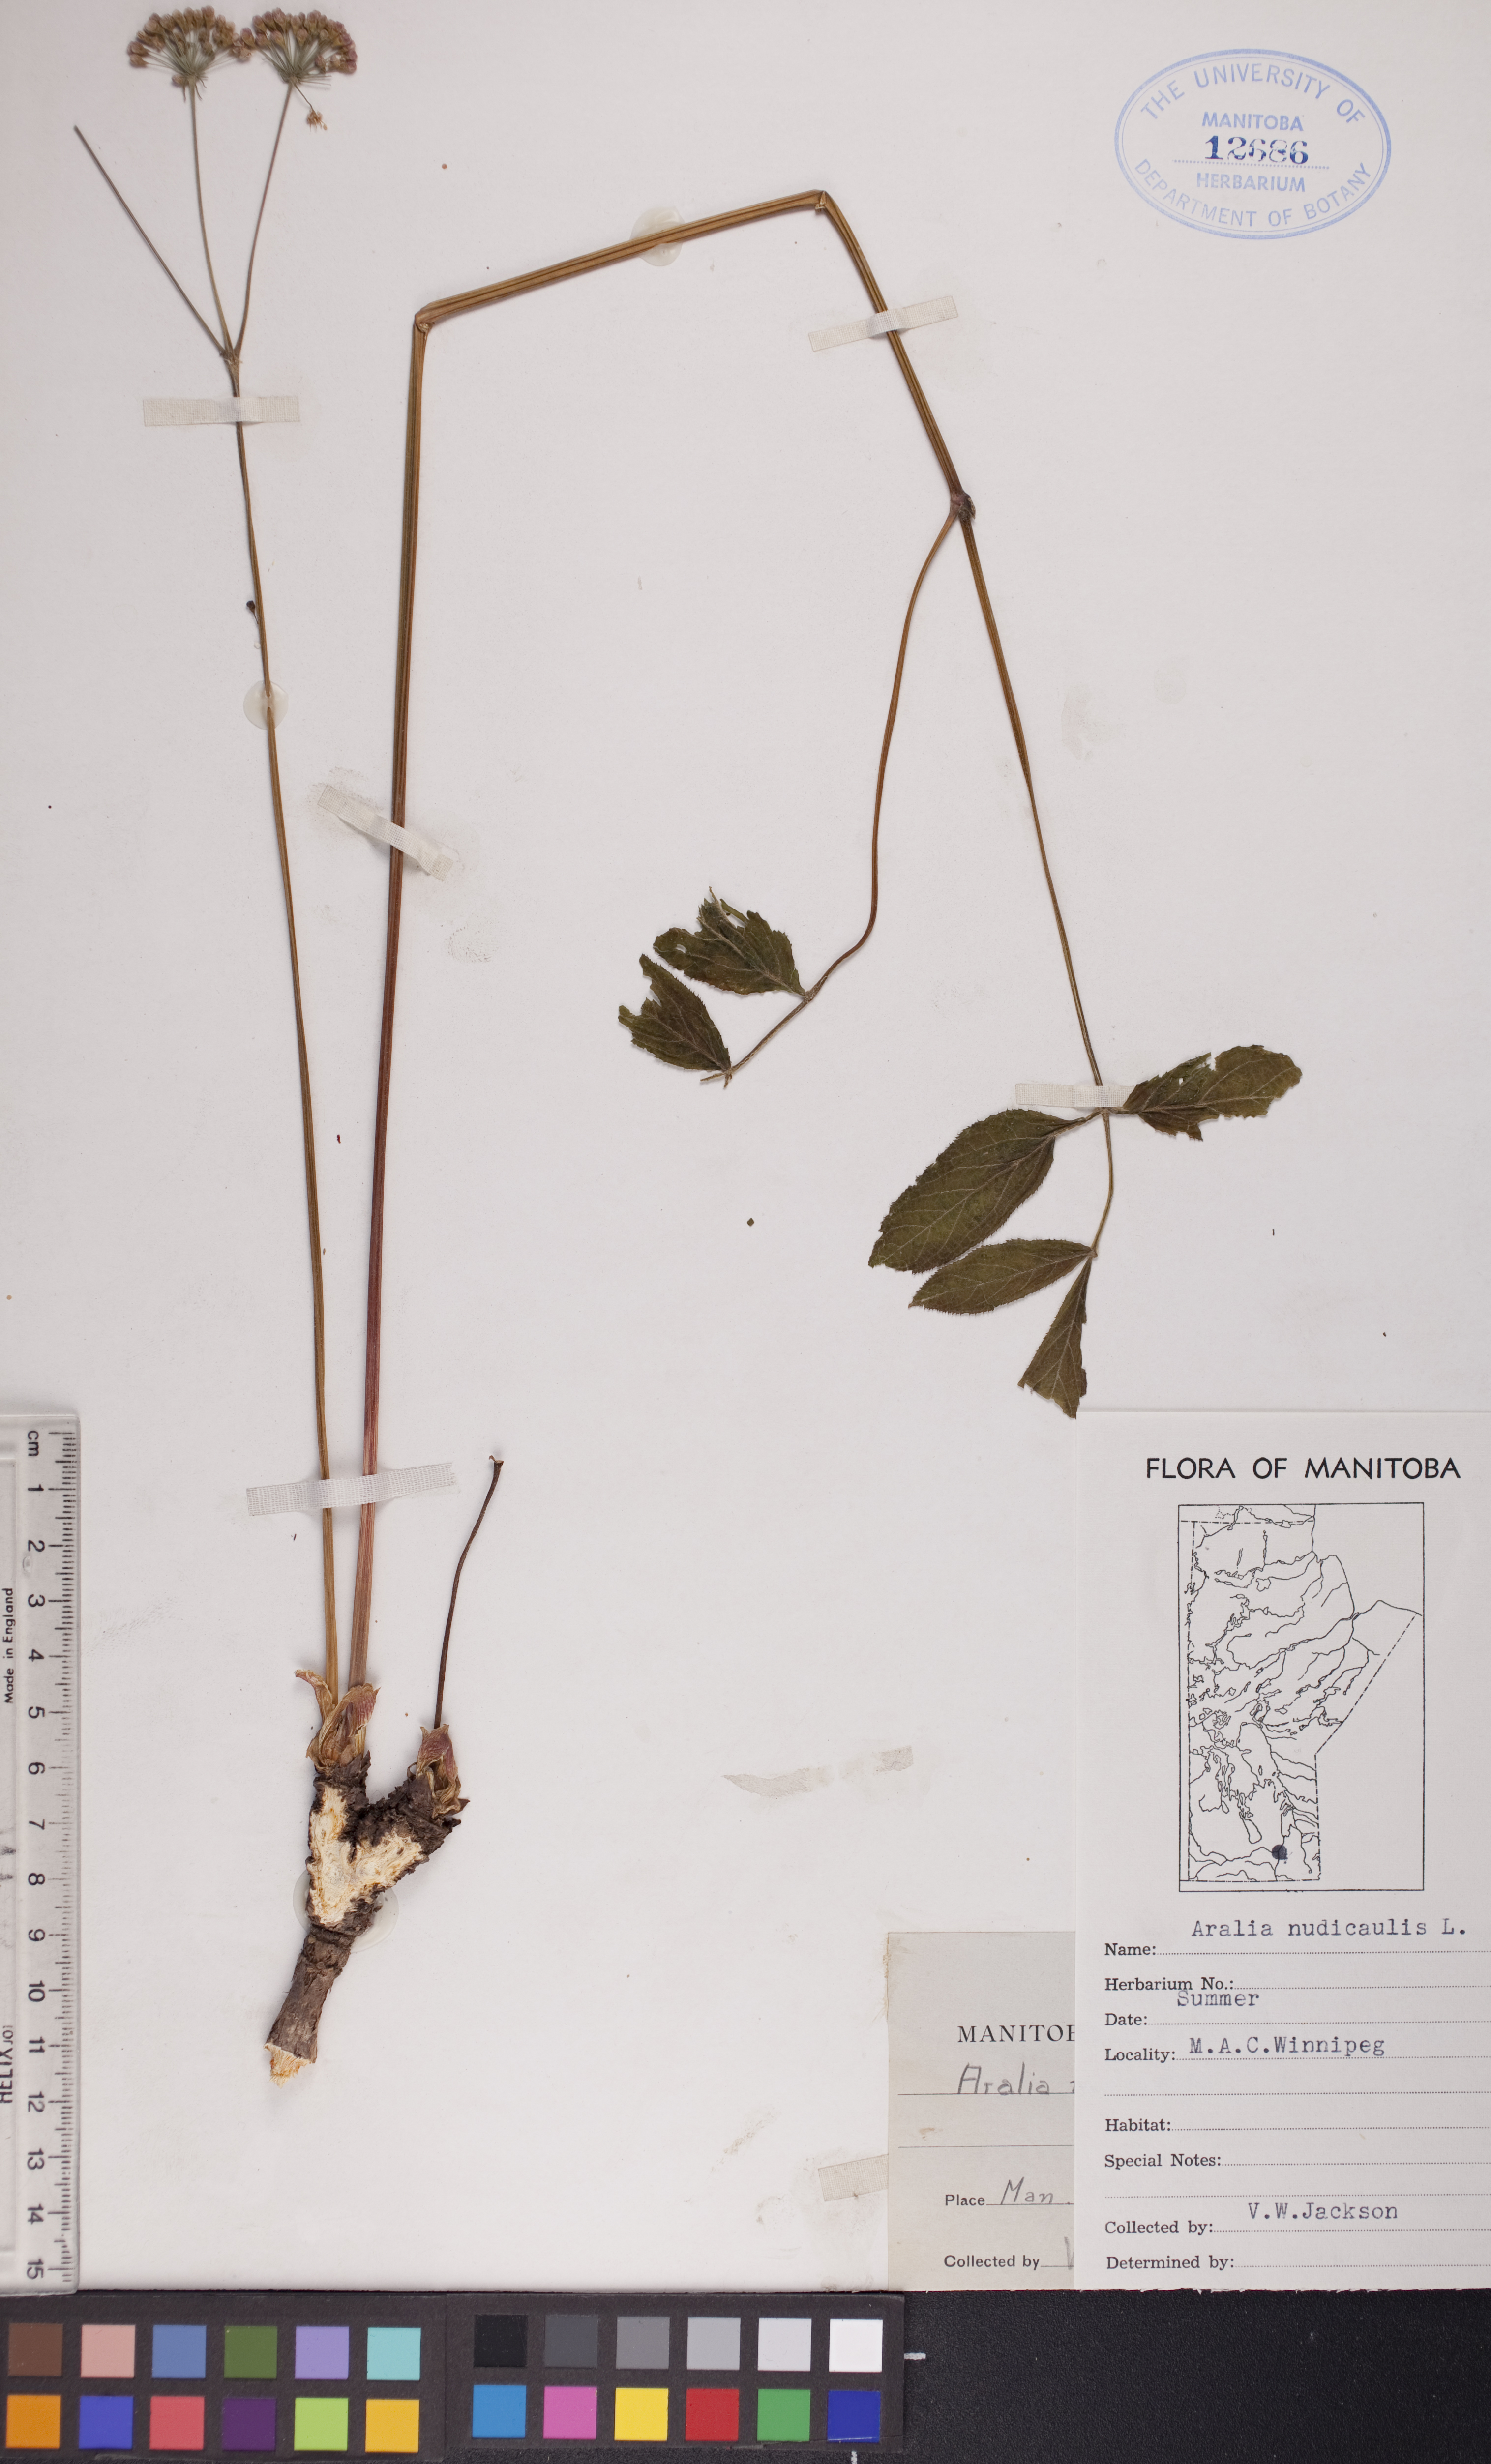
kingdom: Plantae
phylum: Tracheophyta
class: Magnoliopsida
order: Apiales
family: Araliaceae
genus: Aralia
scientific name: Aralia nudicaulis
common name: Wild sarsaparilla
